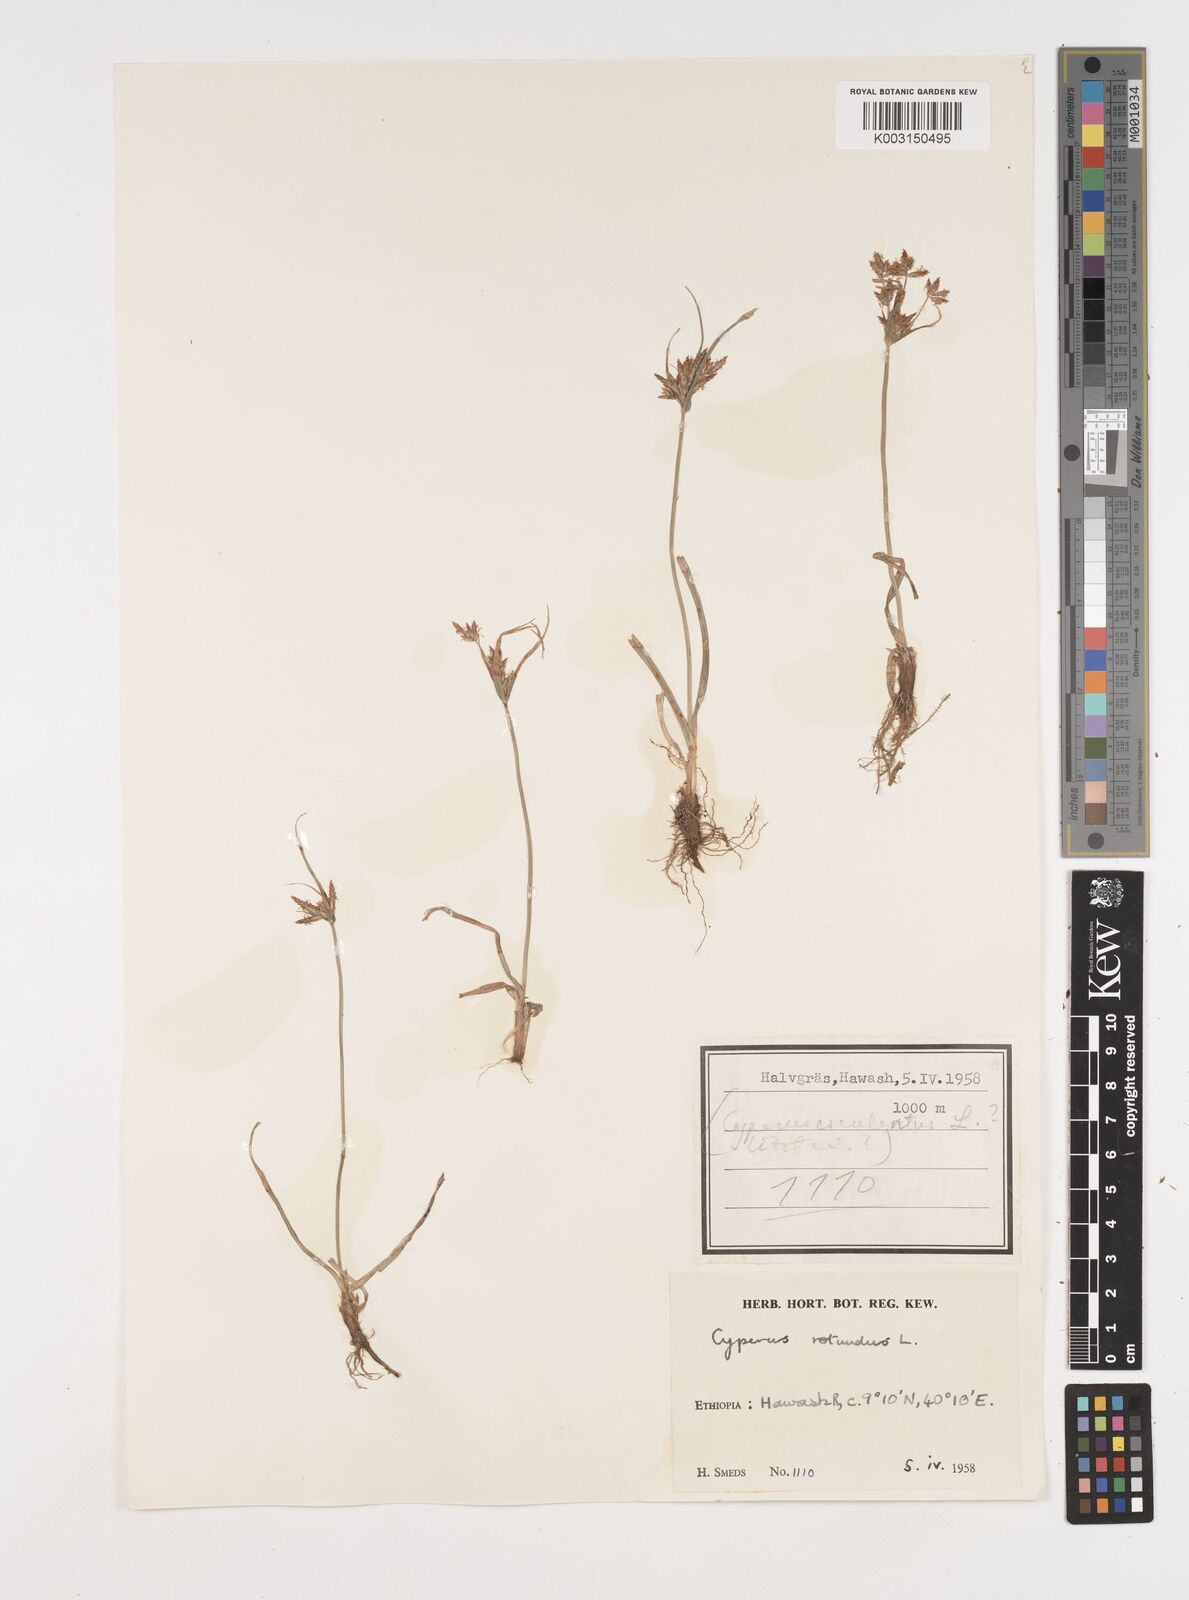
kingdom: Plantae
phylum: Tracheophyta
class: Liliopsida
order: Poales
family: Cyperaceae
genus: Cyperus
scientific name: Cyperus rotundus
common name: Nutgrass
